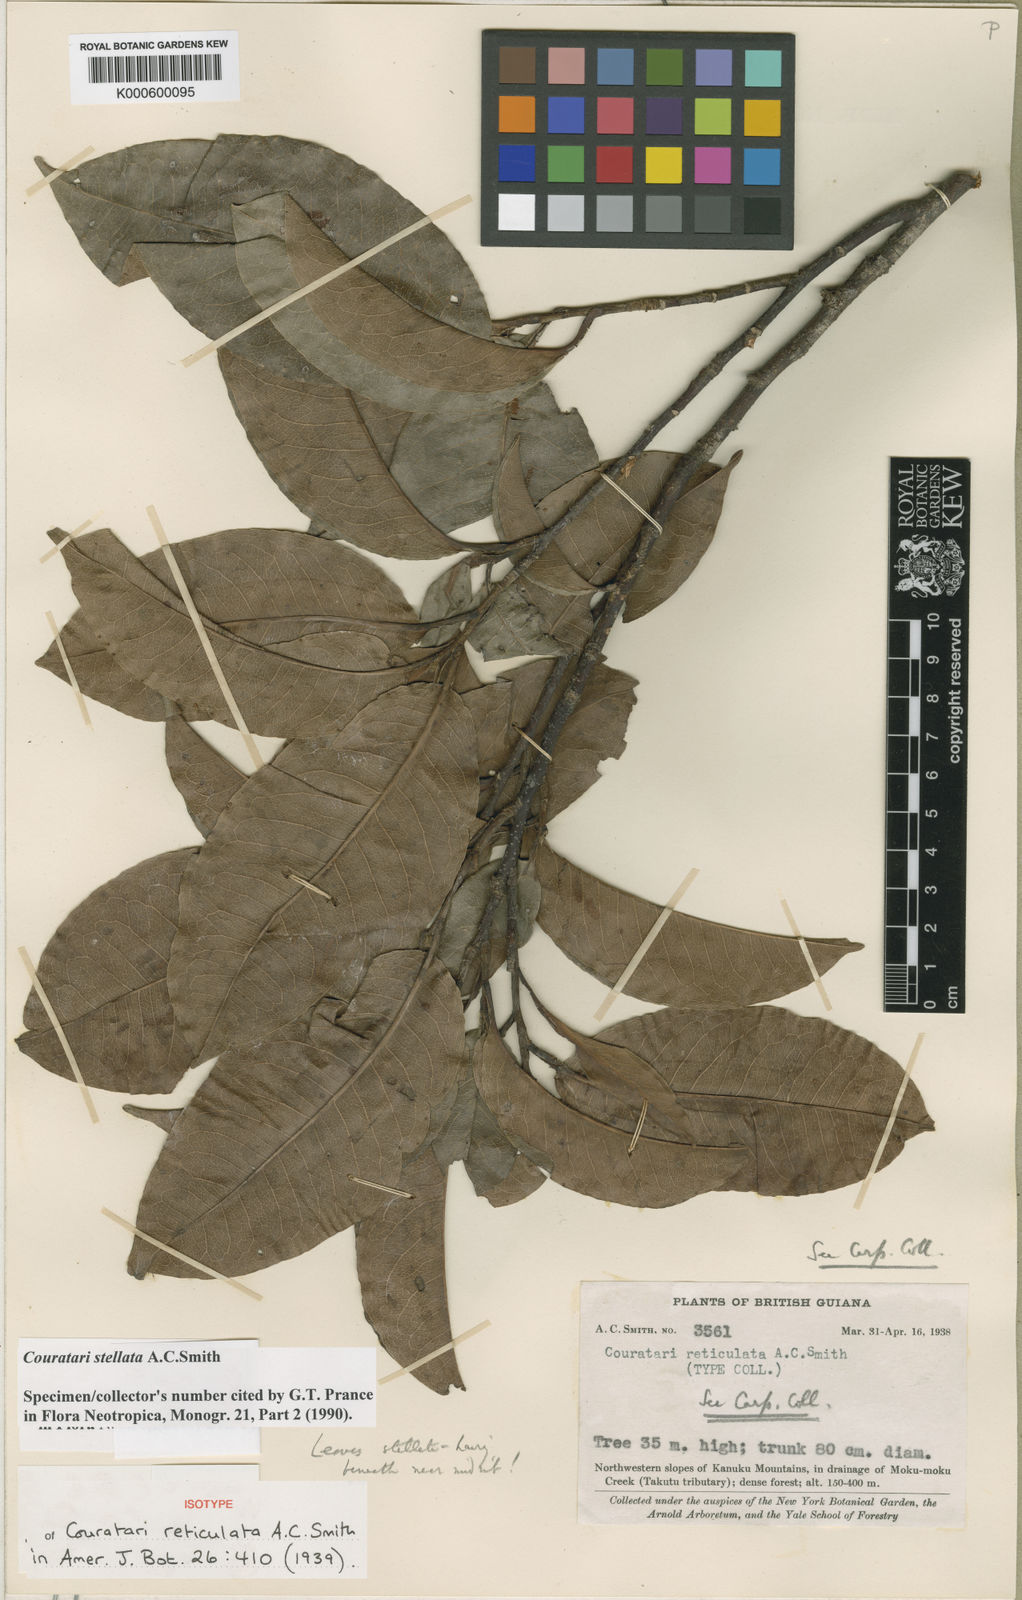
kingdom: Plantae
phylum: Tracheophyta
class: Magnoliopsida
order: Ericales
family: Lecythidaceae
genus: Couratari
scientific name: Couratari stellata
